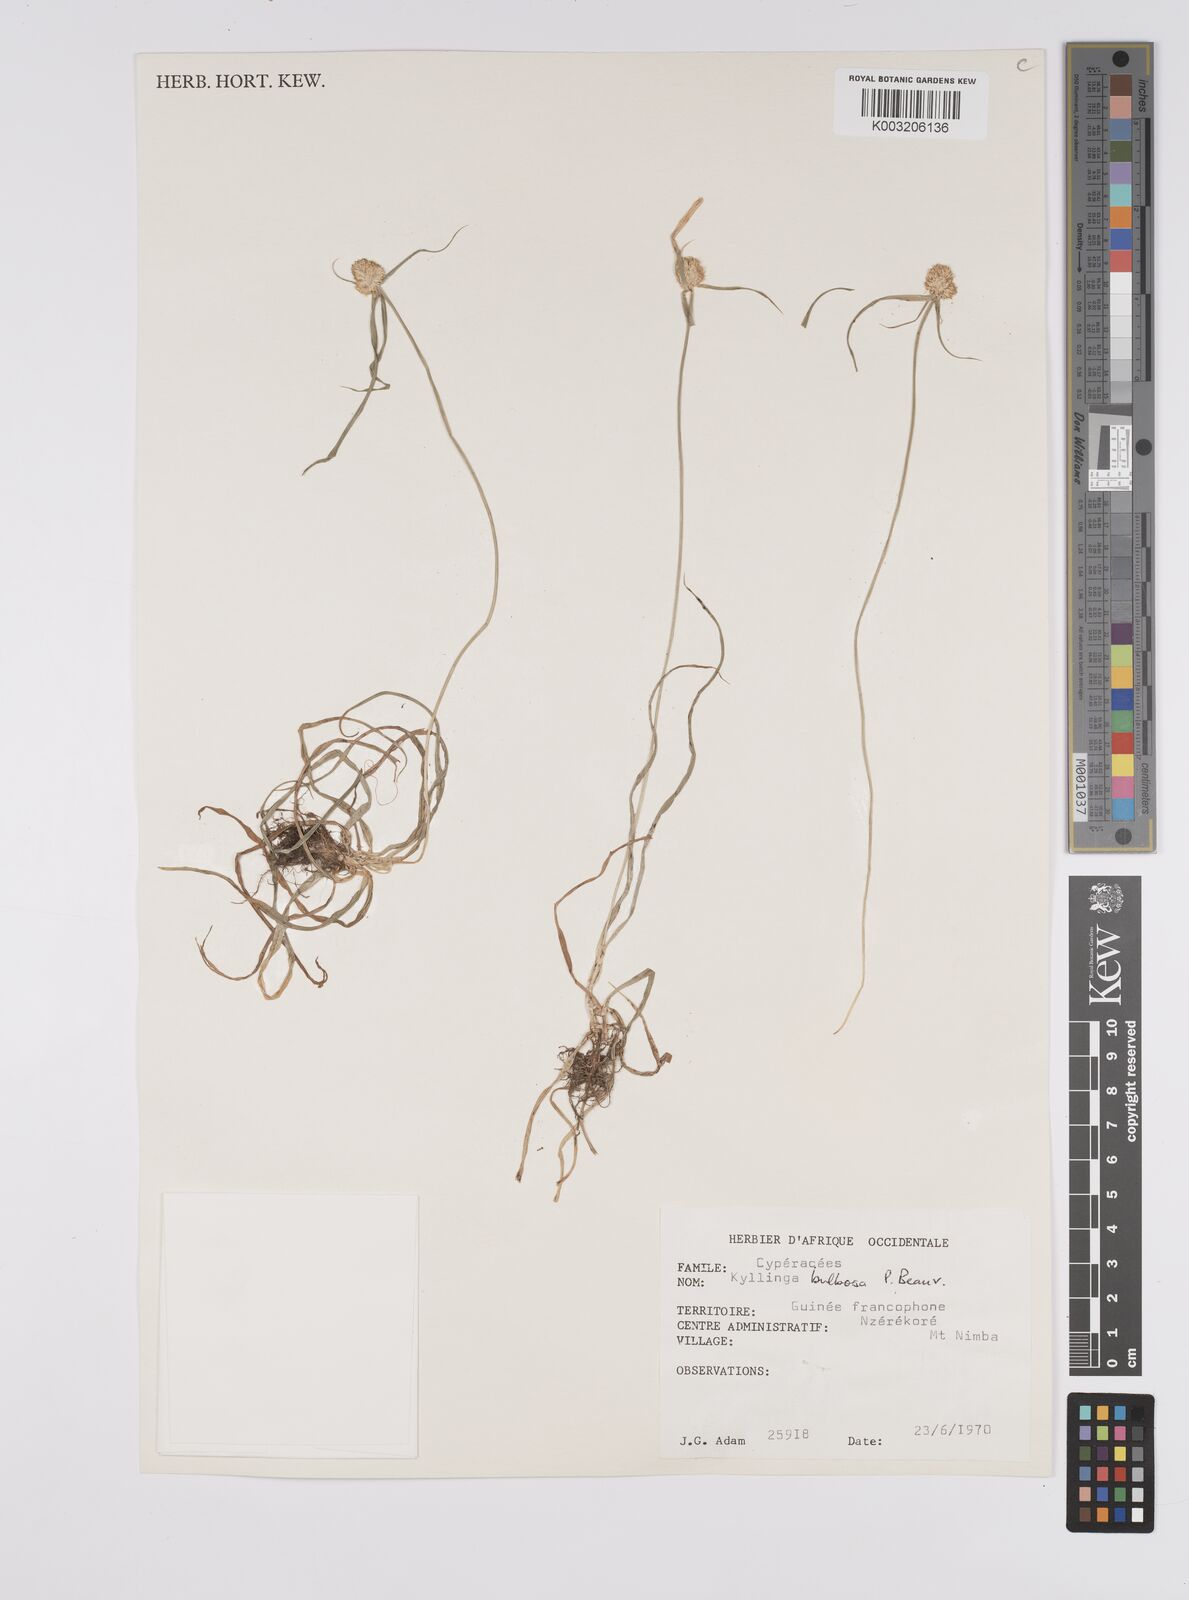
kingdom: Plantae
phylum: Tracheophyta
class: Liliopsida
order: Poales
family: Cyperaceae
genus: Cyperus
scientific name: Cyperus
